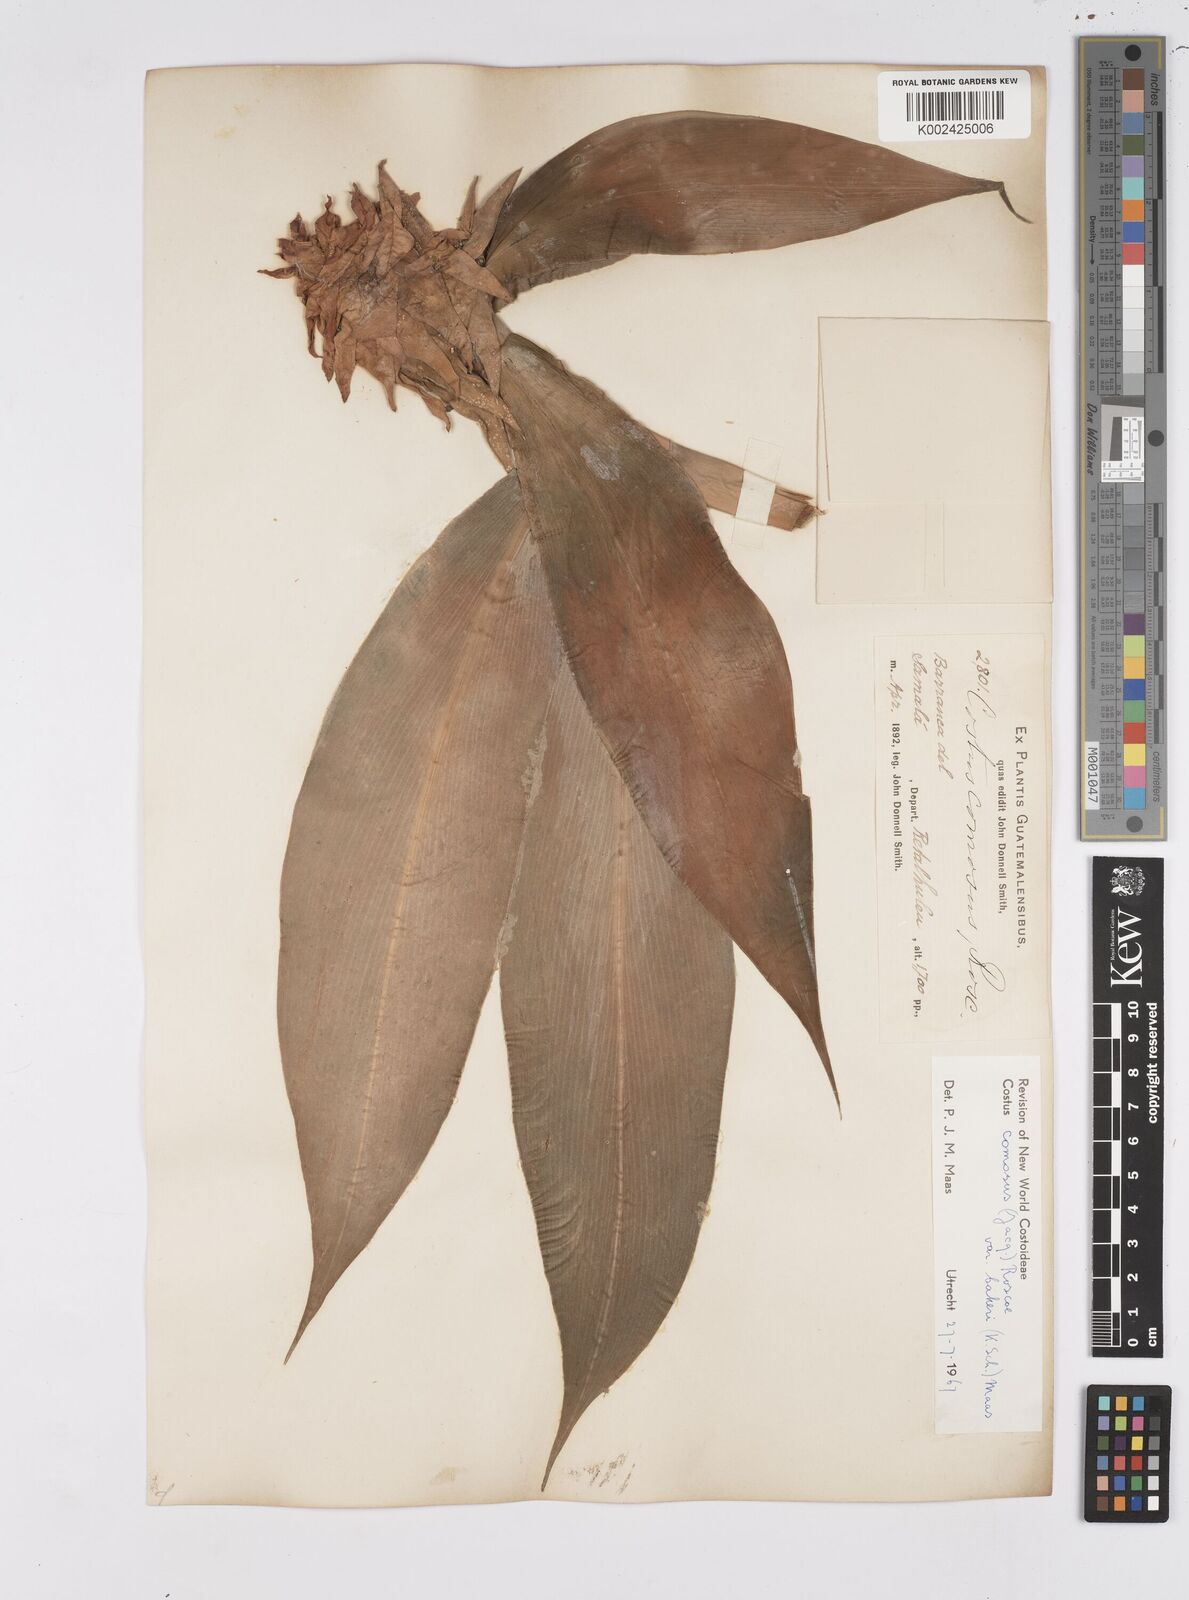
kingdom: Plantae
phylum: Tracheophyta
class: Liliopsida
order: Zingiberales
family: Costaceae
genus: Costus
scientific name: Costus comosus
